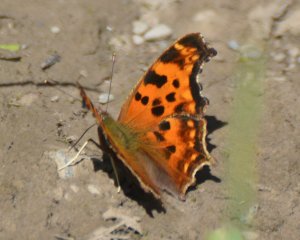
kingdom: Animalia
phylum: Arthropoda
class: Insecta
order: Lepidoptera
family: Nymphalidae
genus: Polygonia
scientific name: Polygonia satyrus
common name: Satyr Comma
